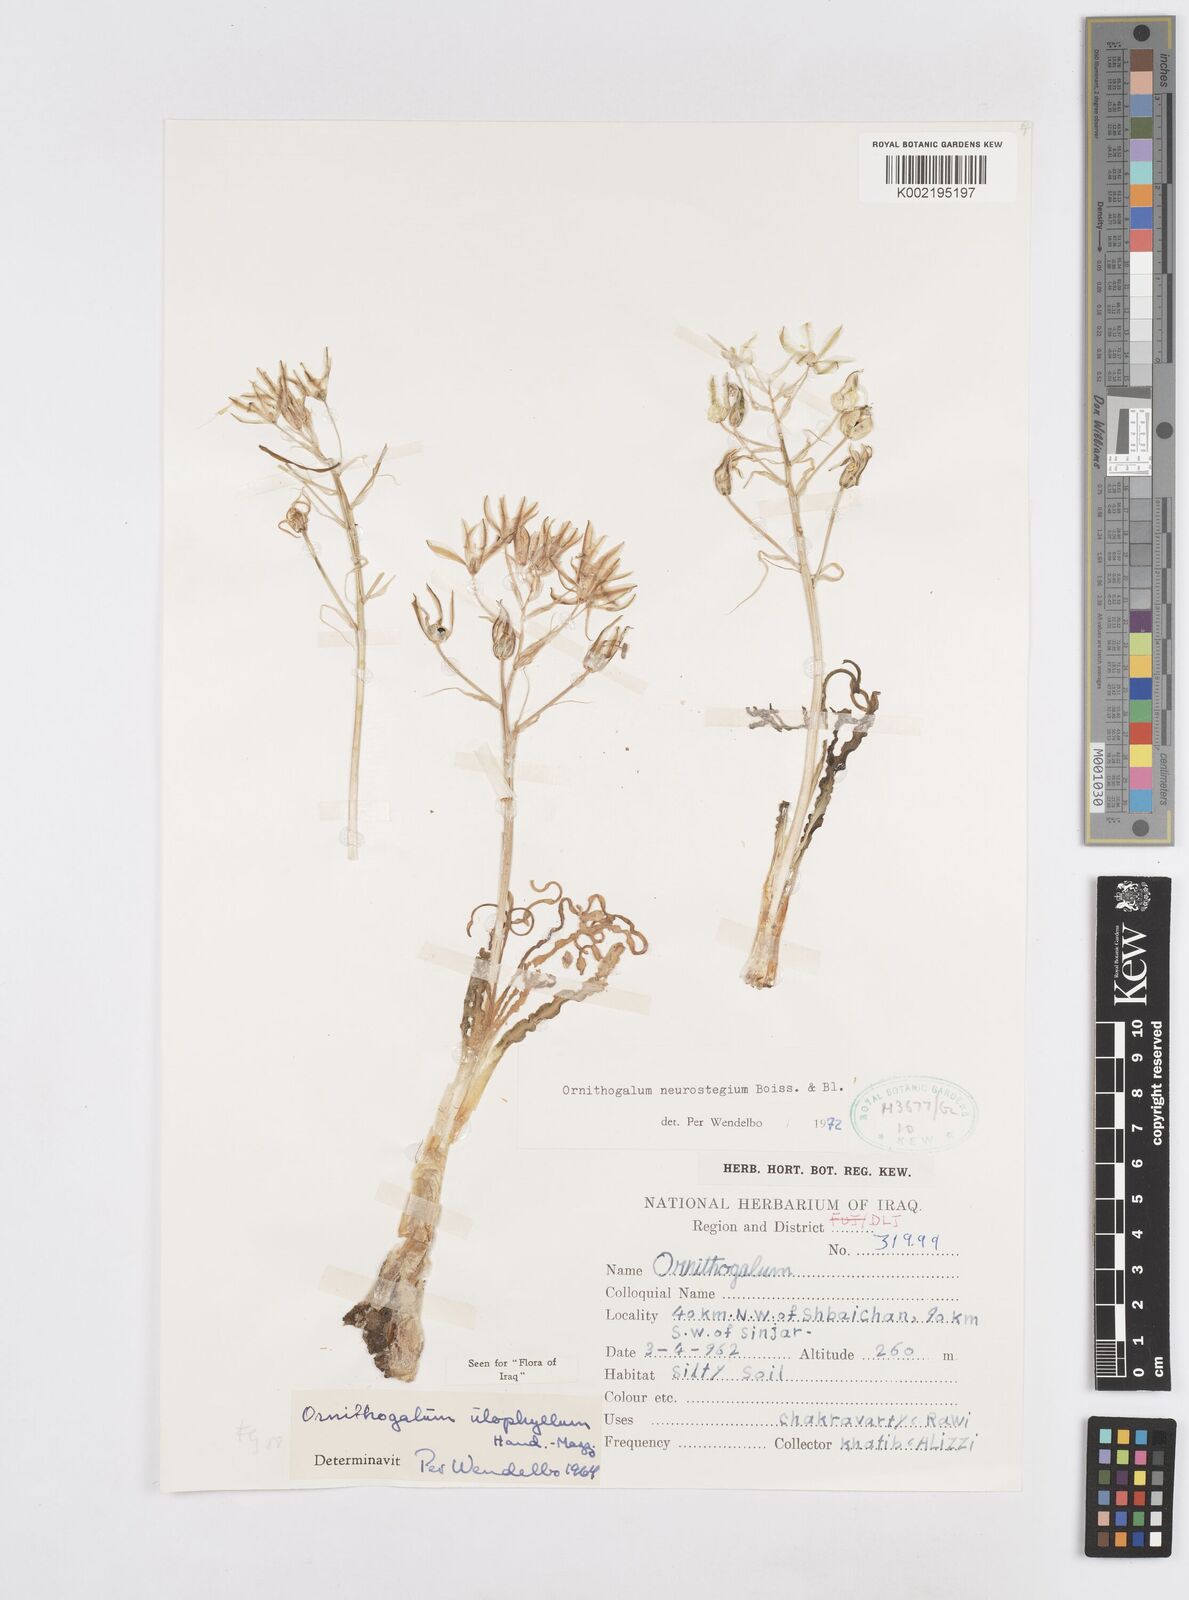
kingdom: Plantae
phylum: Tracheophyta
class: Liliopsida
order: Asparagales
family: Asparagaceae
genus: Ornithogalum
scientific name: Ornithogalum neurostegium
